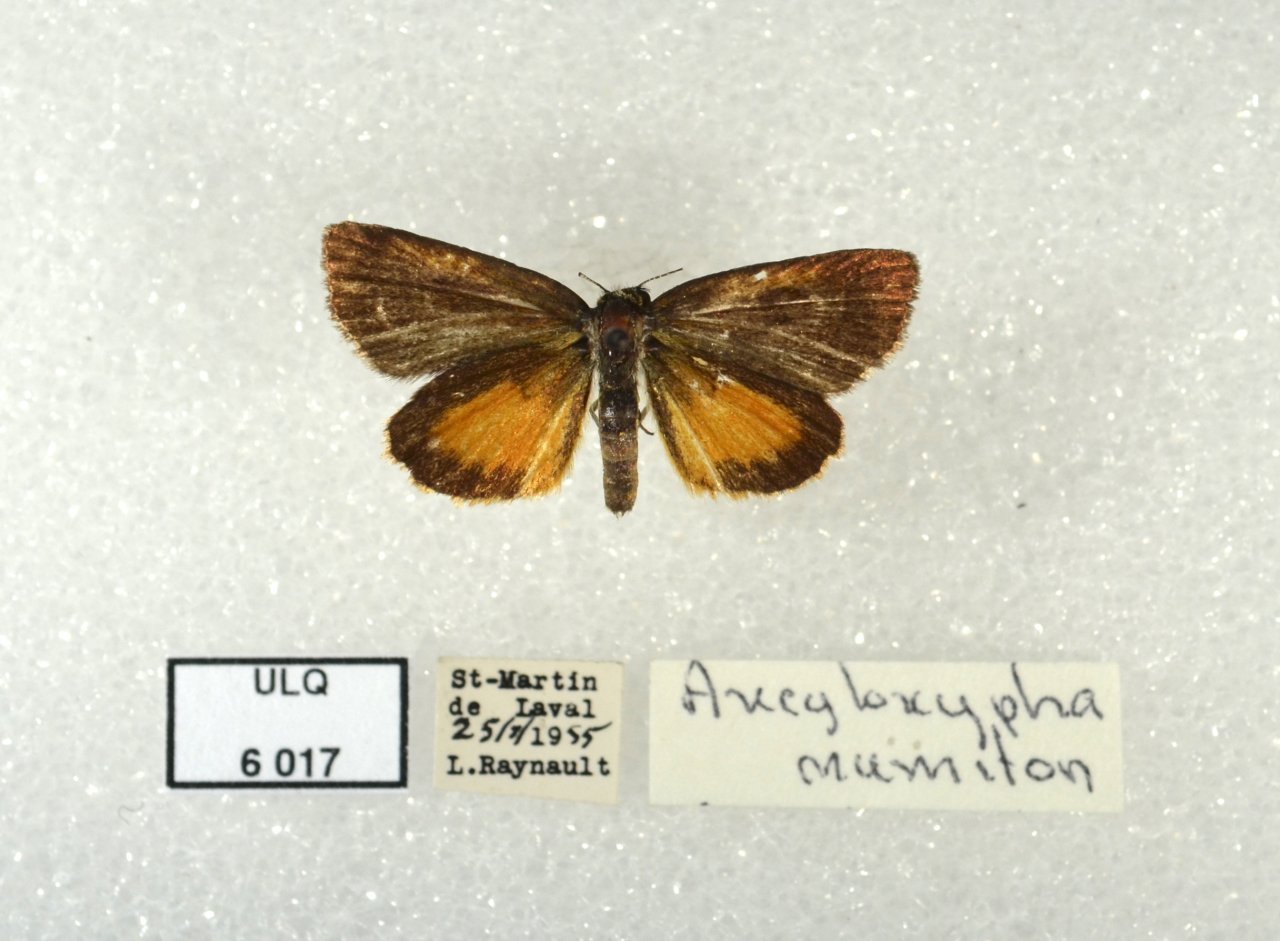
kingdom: Animalia
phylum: Arthropoda
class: Insecta
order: Lepidoptera
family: Hesperiidae
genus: Ancyloxypha
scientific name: Ancyloxypha numitor
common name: Least Skipper
